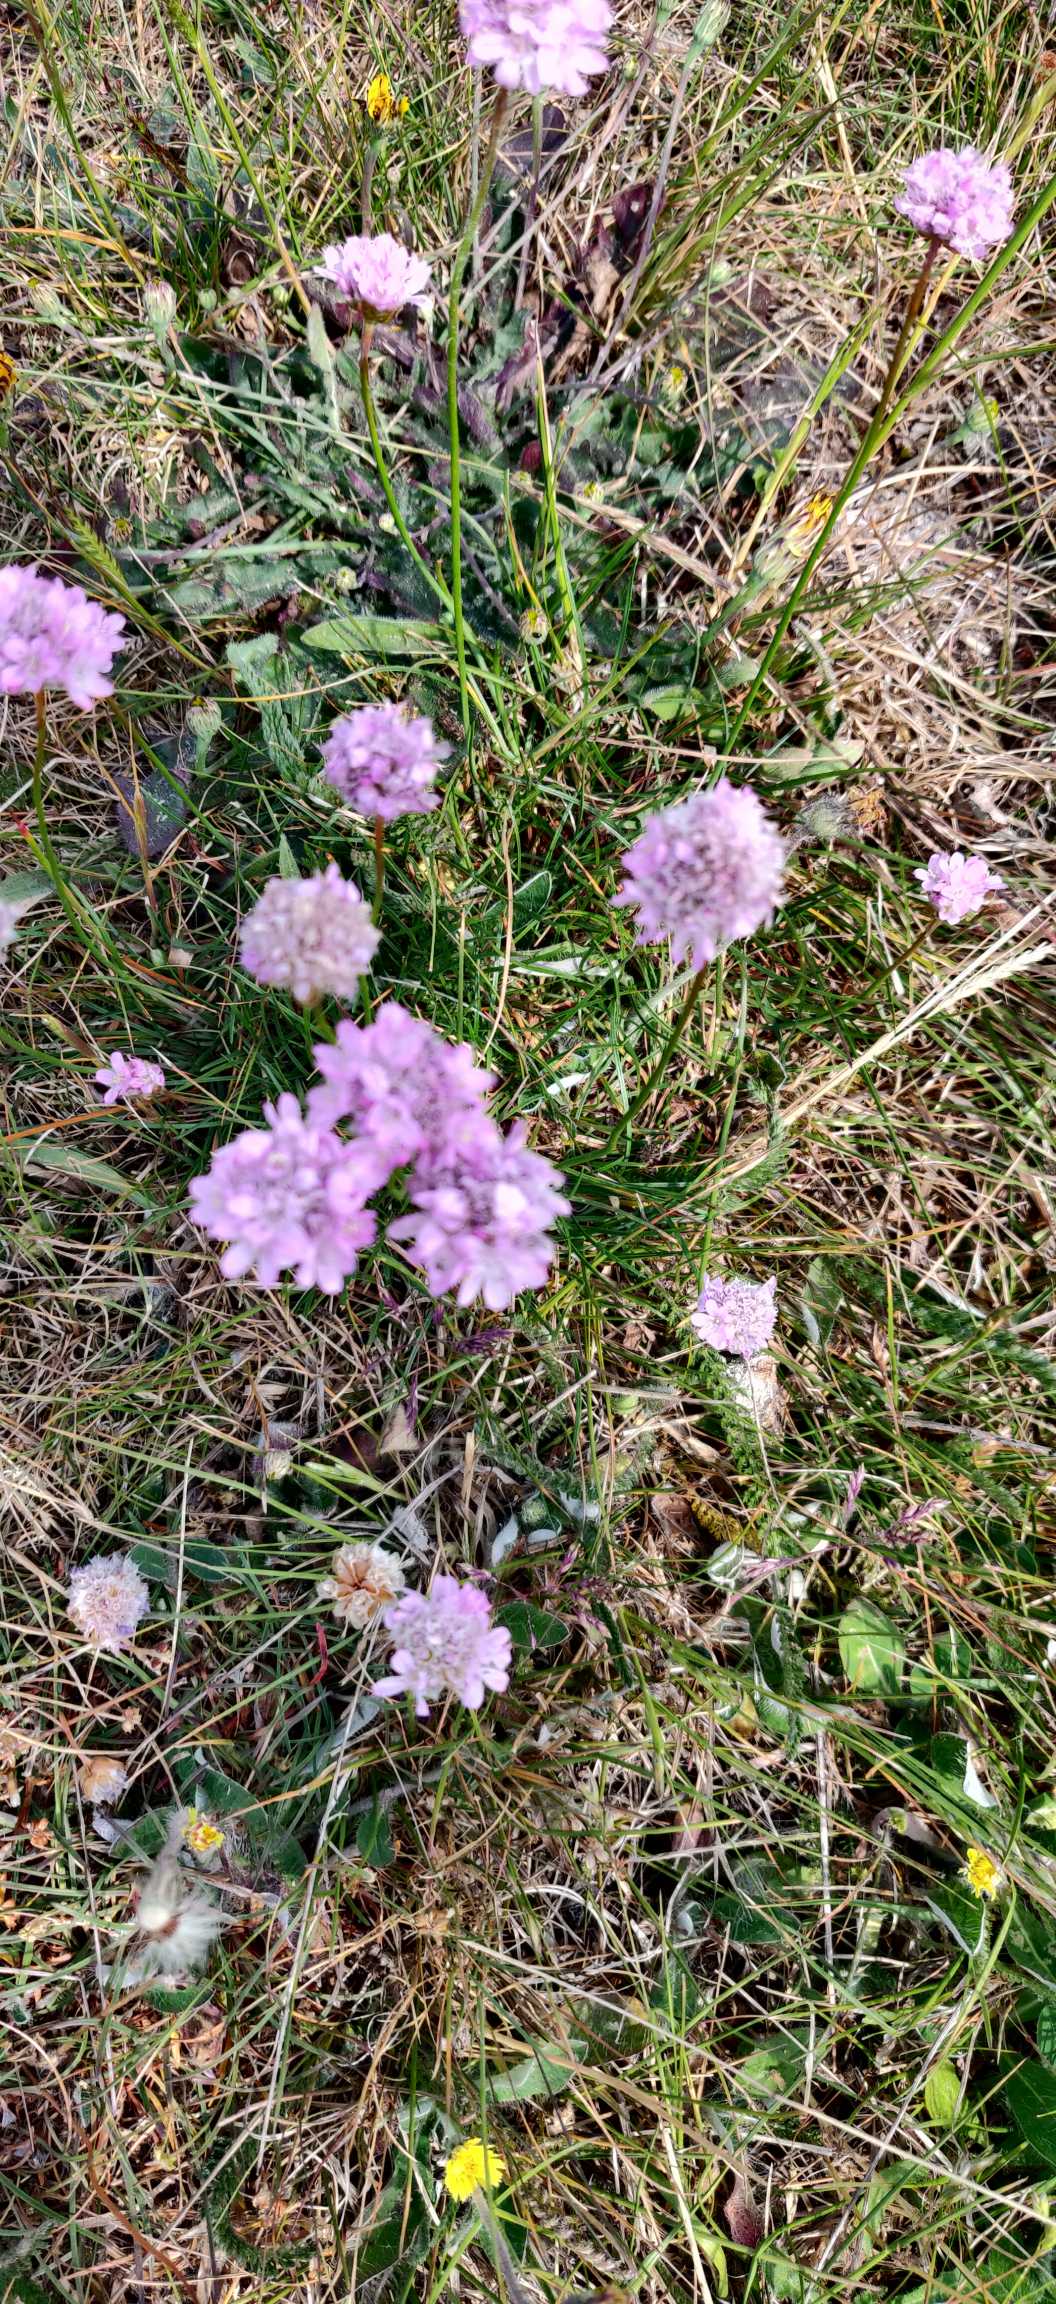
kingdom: Plantae
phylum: Tracheophyta
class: Magnoliopsida
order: Caryophyllales
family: Plumbaginaceae
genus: Armeria
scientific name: Armeria maritima
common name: Engelskgræs
